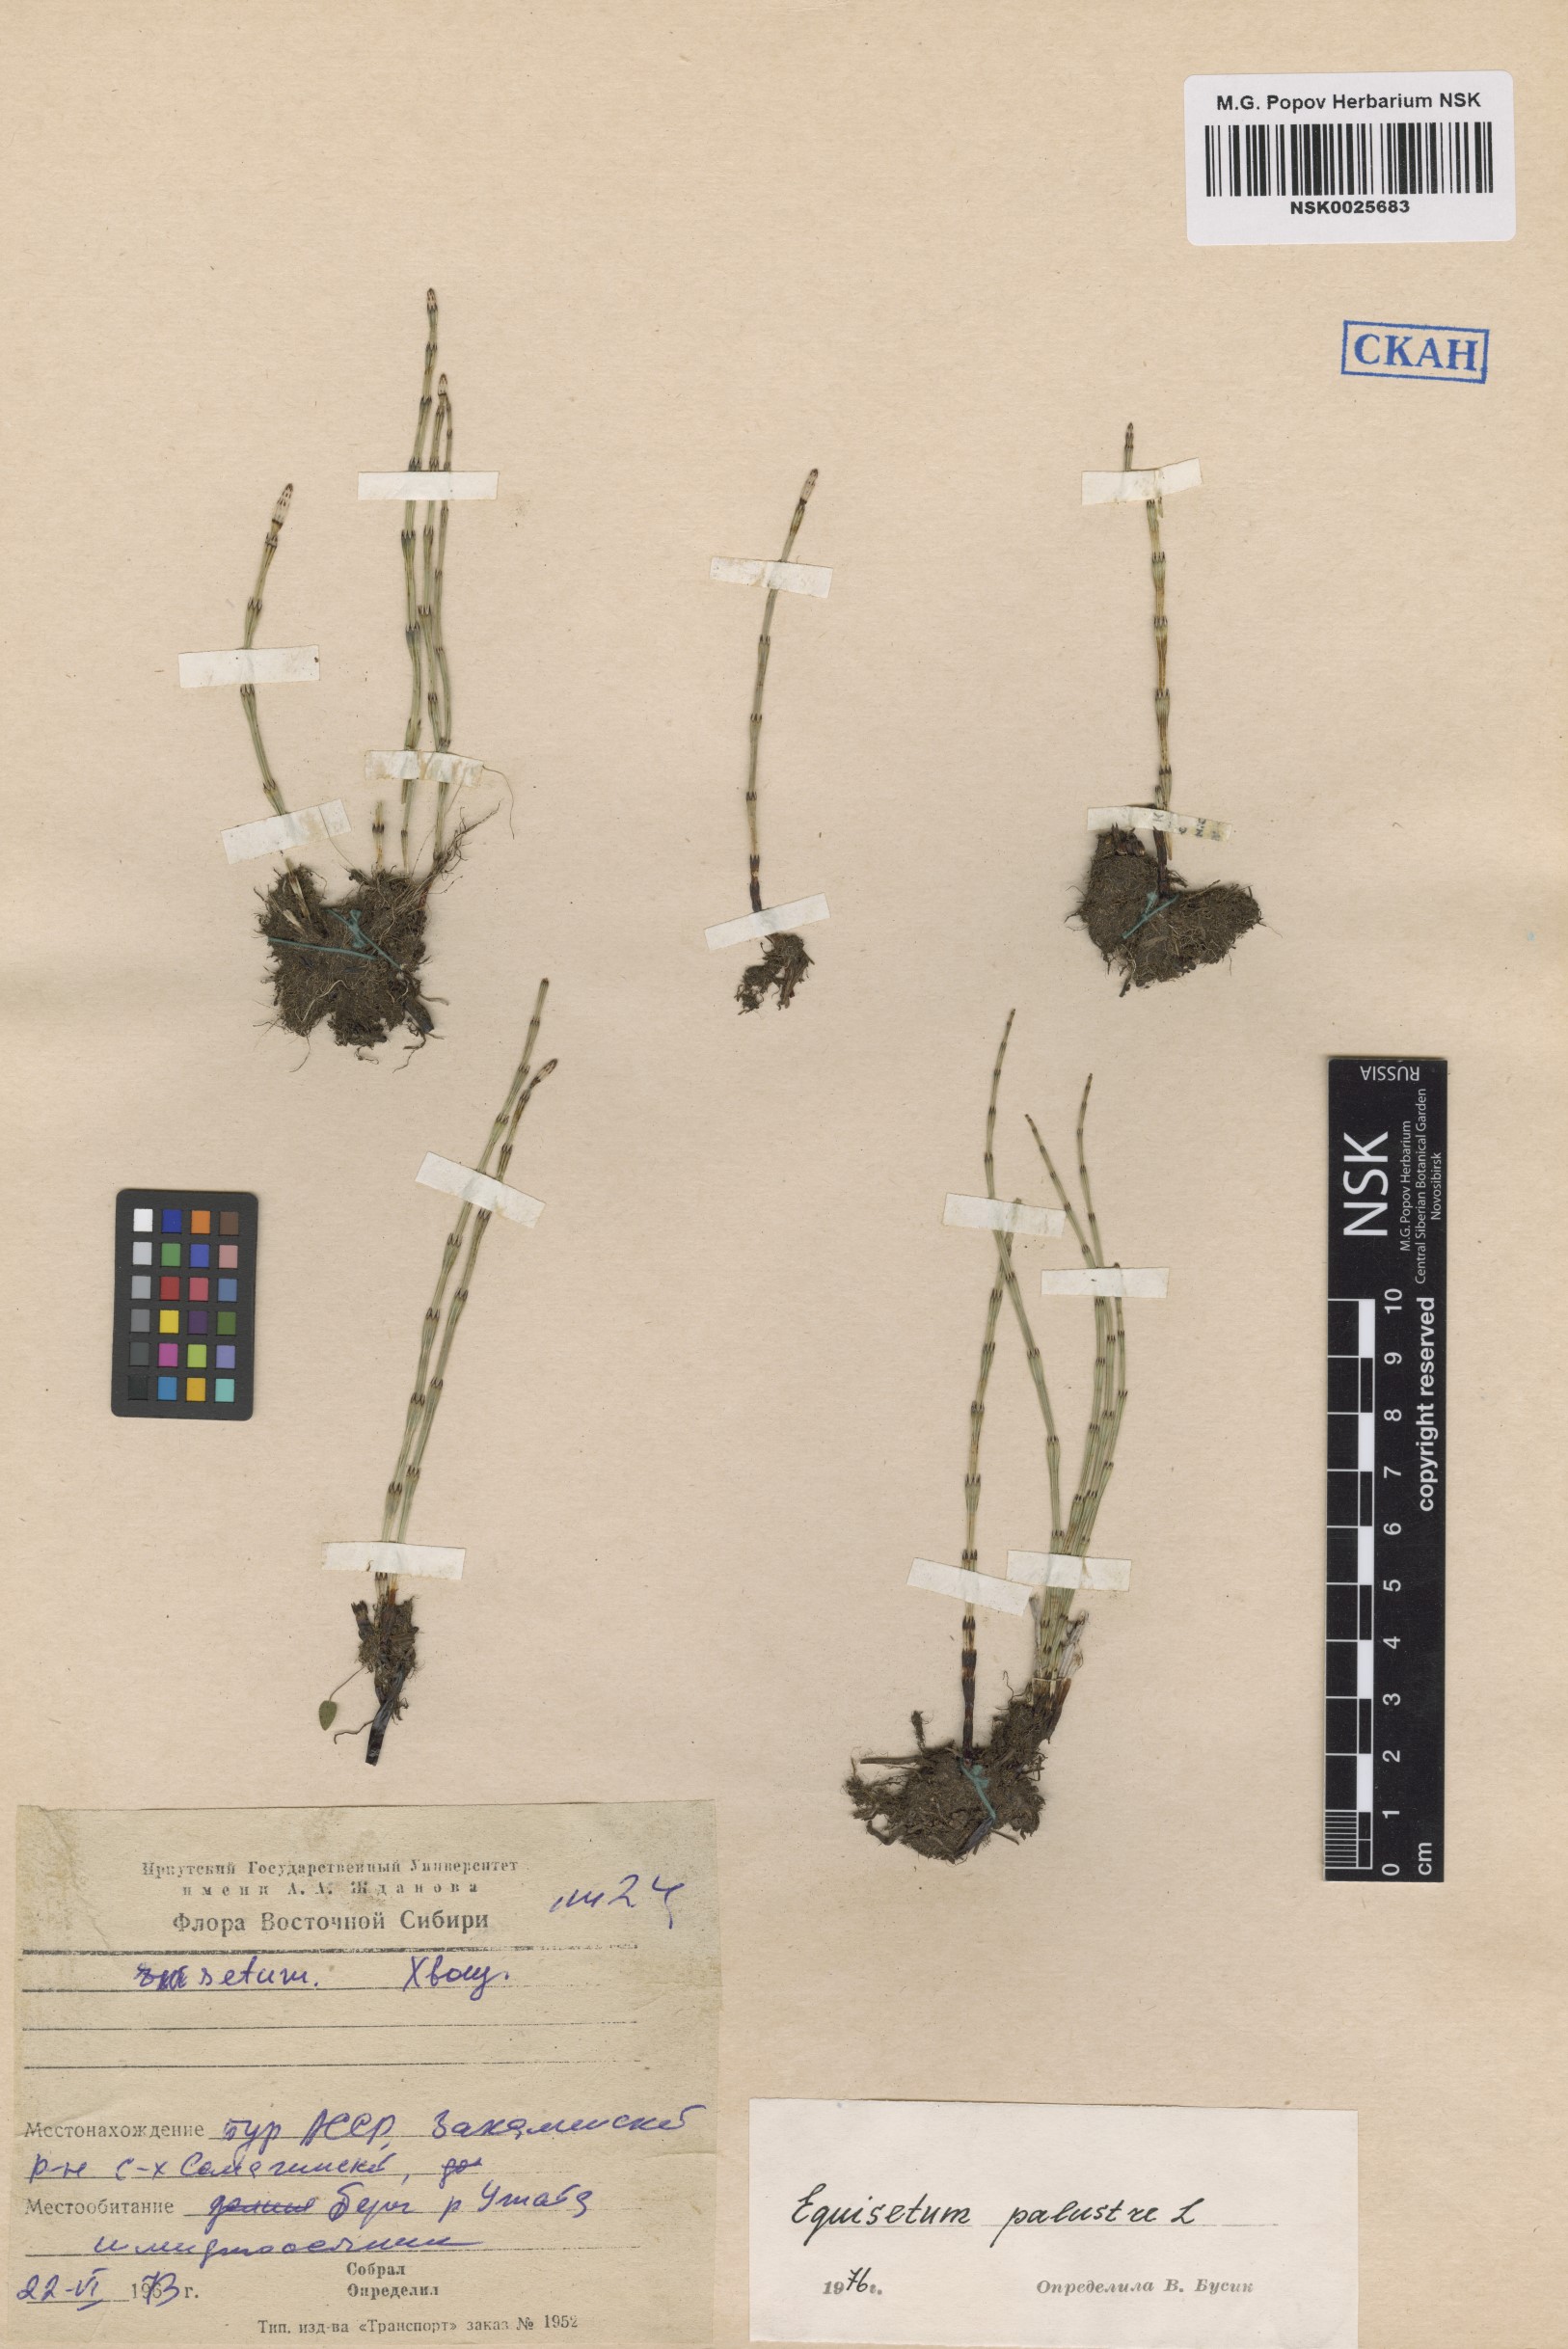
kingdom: Plantae
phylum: Tracheophyta
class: Polypodiopsida
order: Equisetales
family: Equisetaceae
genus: Equisetum
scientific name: Equisetum palustre
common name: Marsh horsetail
